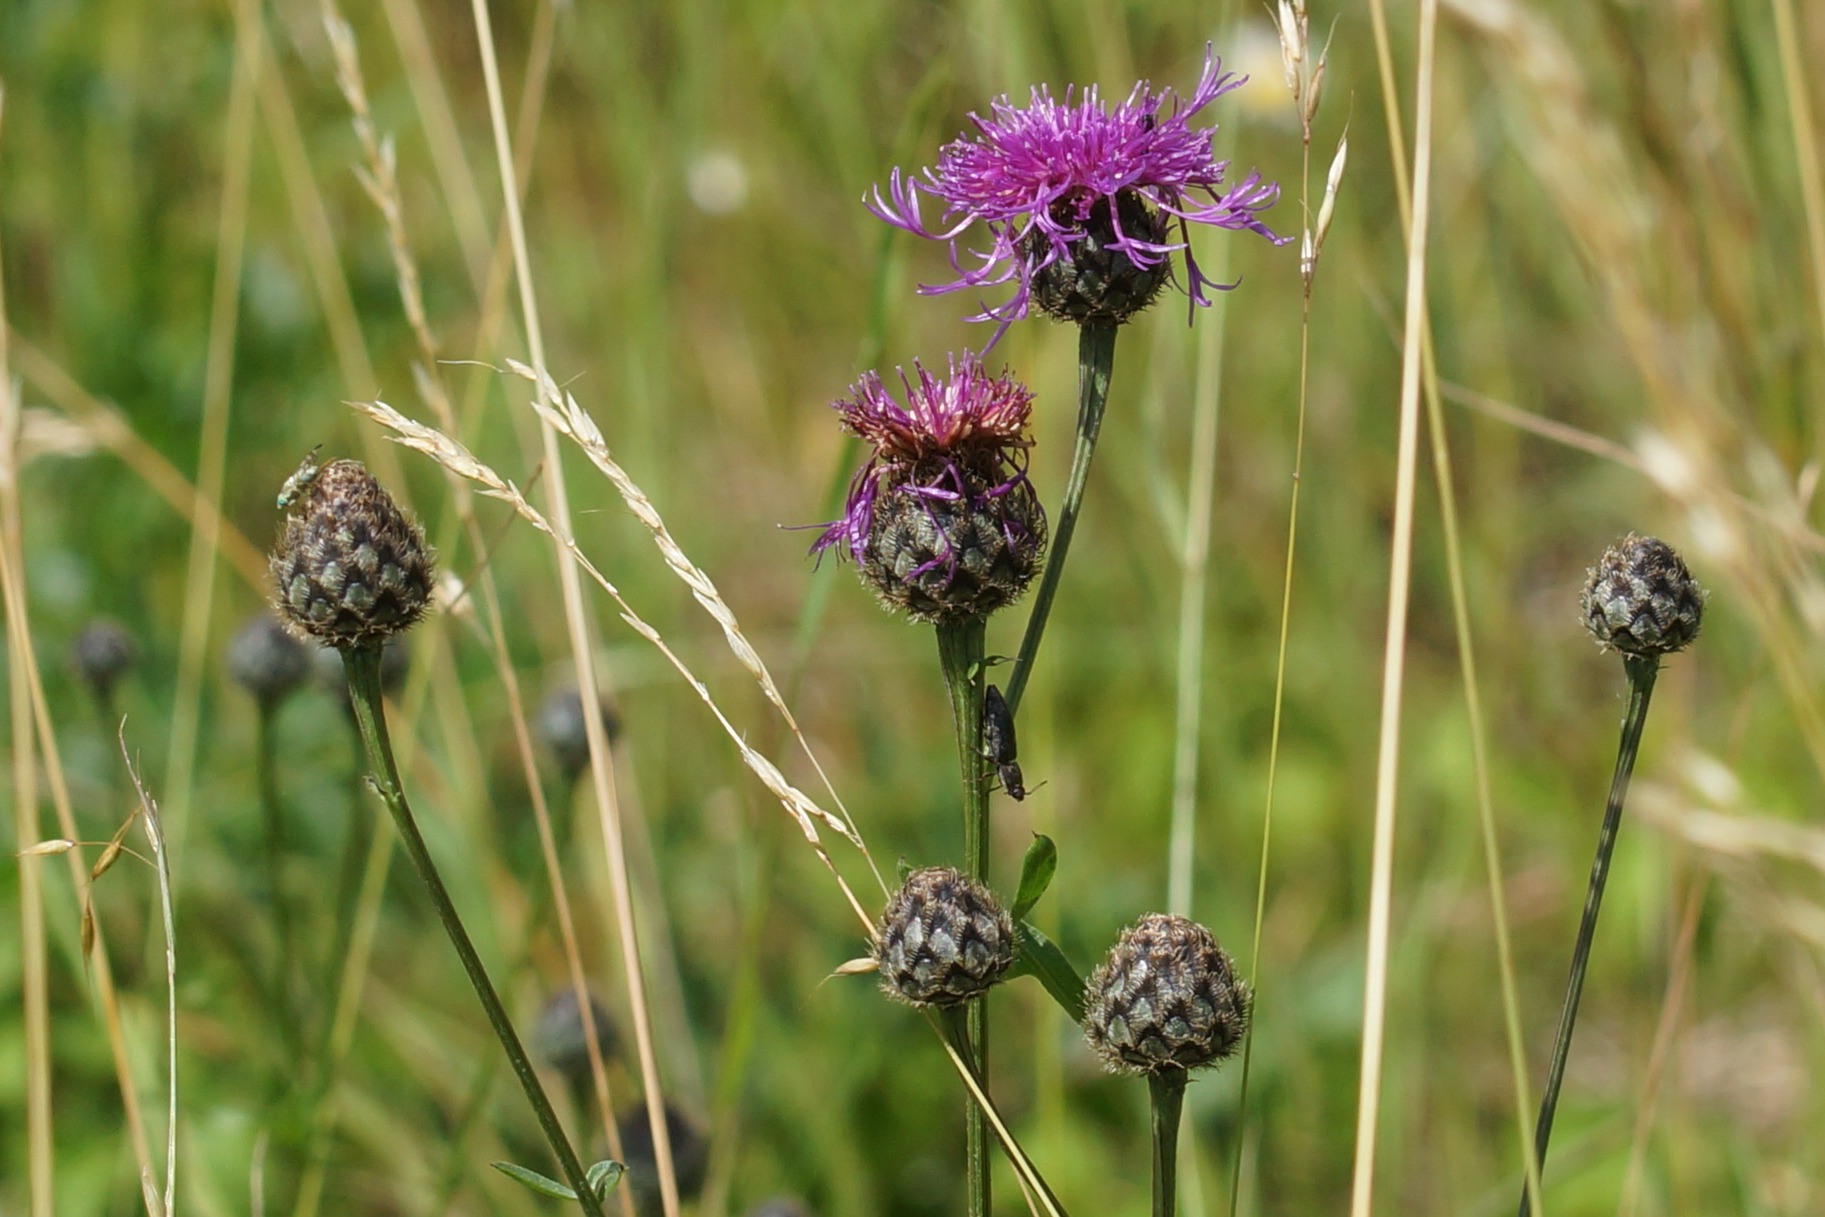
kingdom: Plantae
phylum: Tracheophyta
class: Magnoliopsida
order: Asterales
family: Asteraceae
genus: Centaurea
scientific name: Centaurea scabiosa
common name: Stor knopurt
